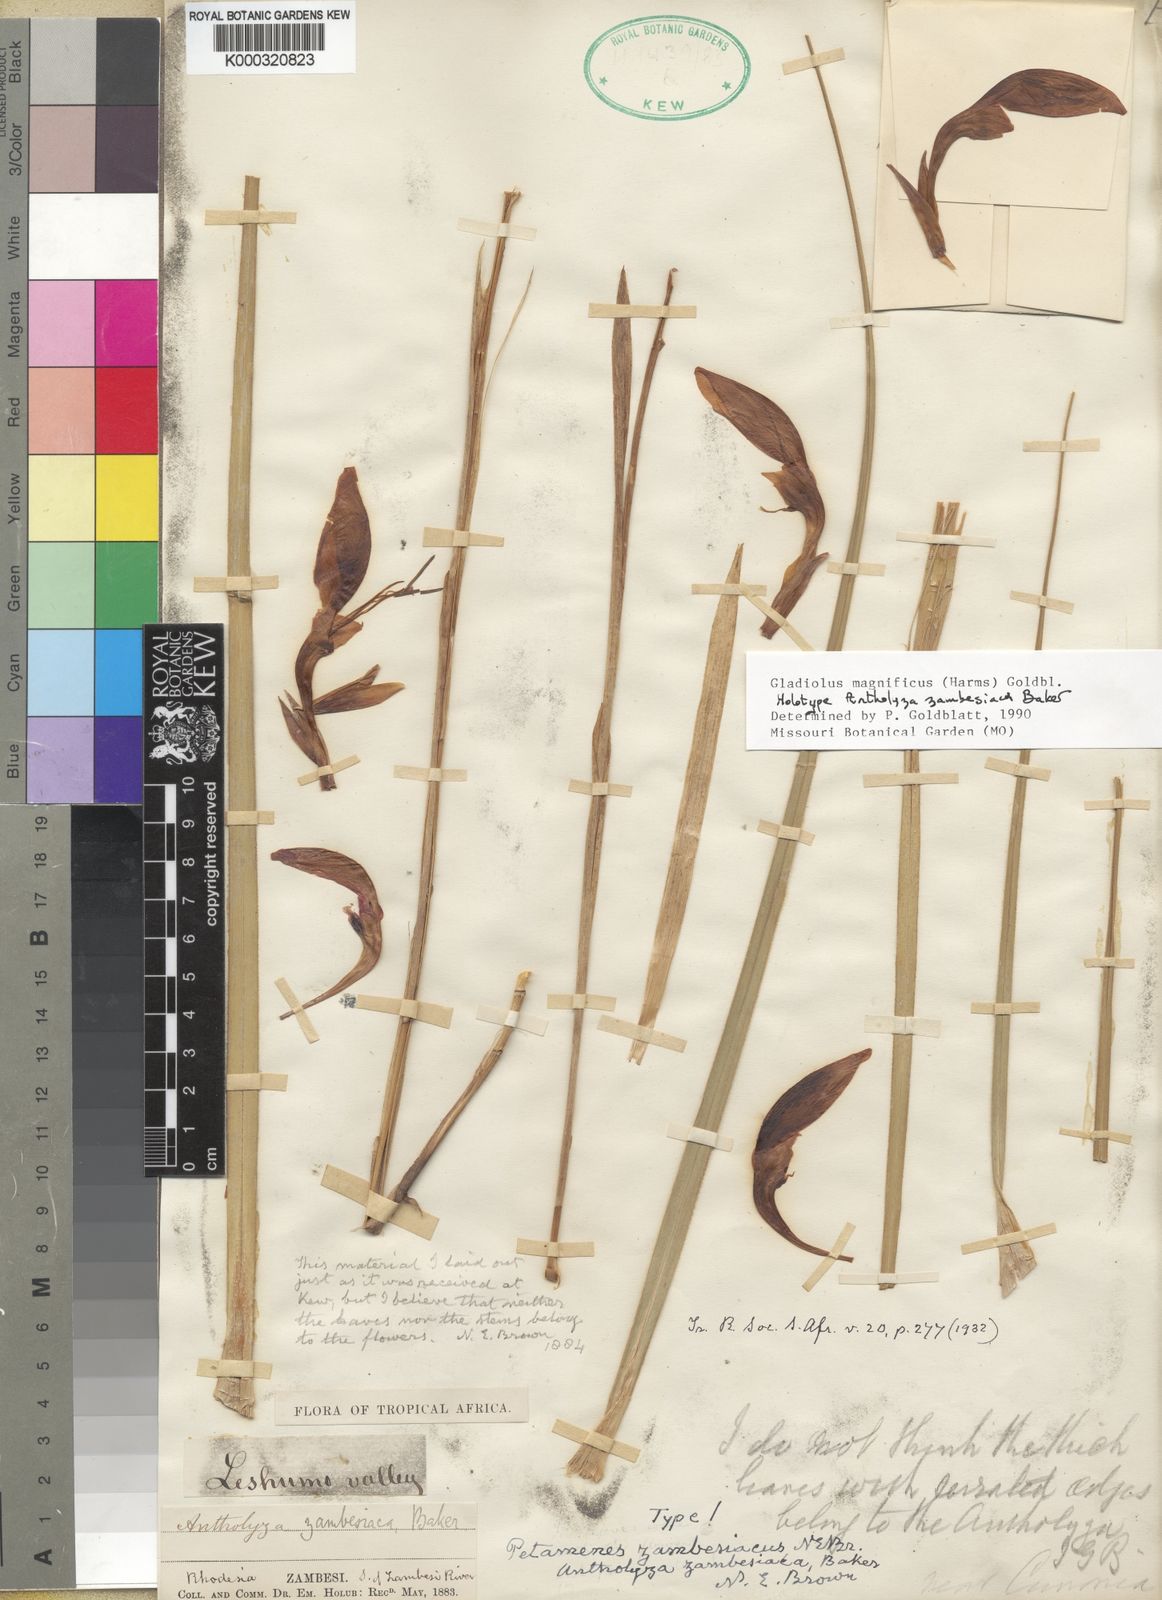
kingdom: Plantae
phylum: Tracheophyta
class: Liliopsida
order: Asparagales
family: Iridaceae
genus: Gladiolus
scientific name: Gladiolus magnificus
